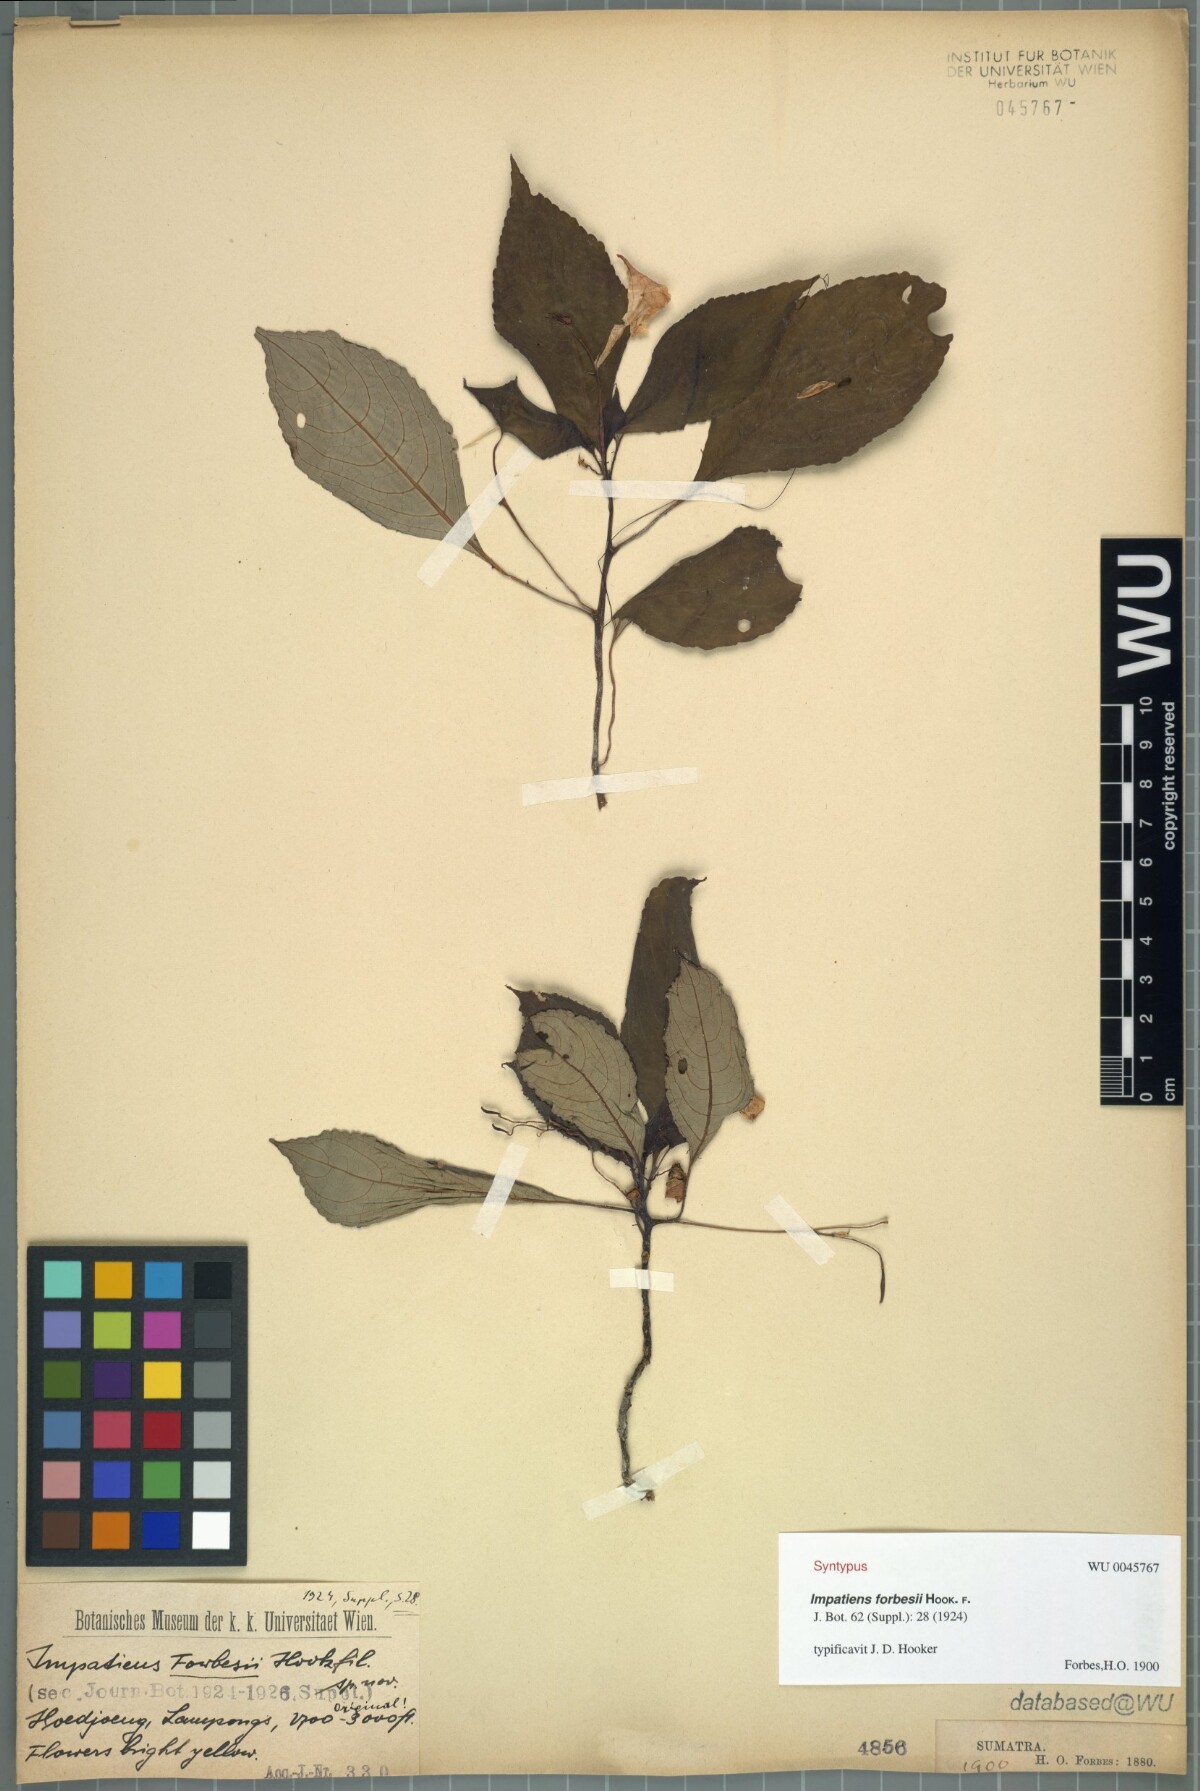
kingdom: Plantae
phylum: Tracheophyta
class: Magnoliopsida
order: Ericales
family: Balsaminaceae
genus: Impatiens
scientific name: Impatiens forbesii
